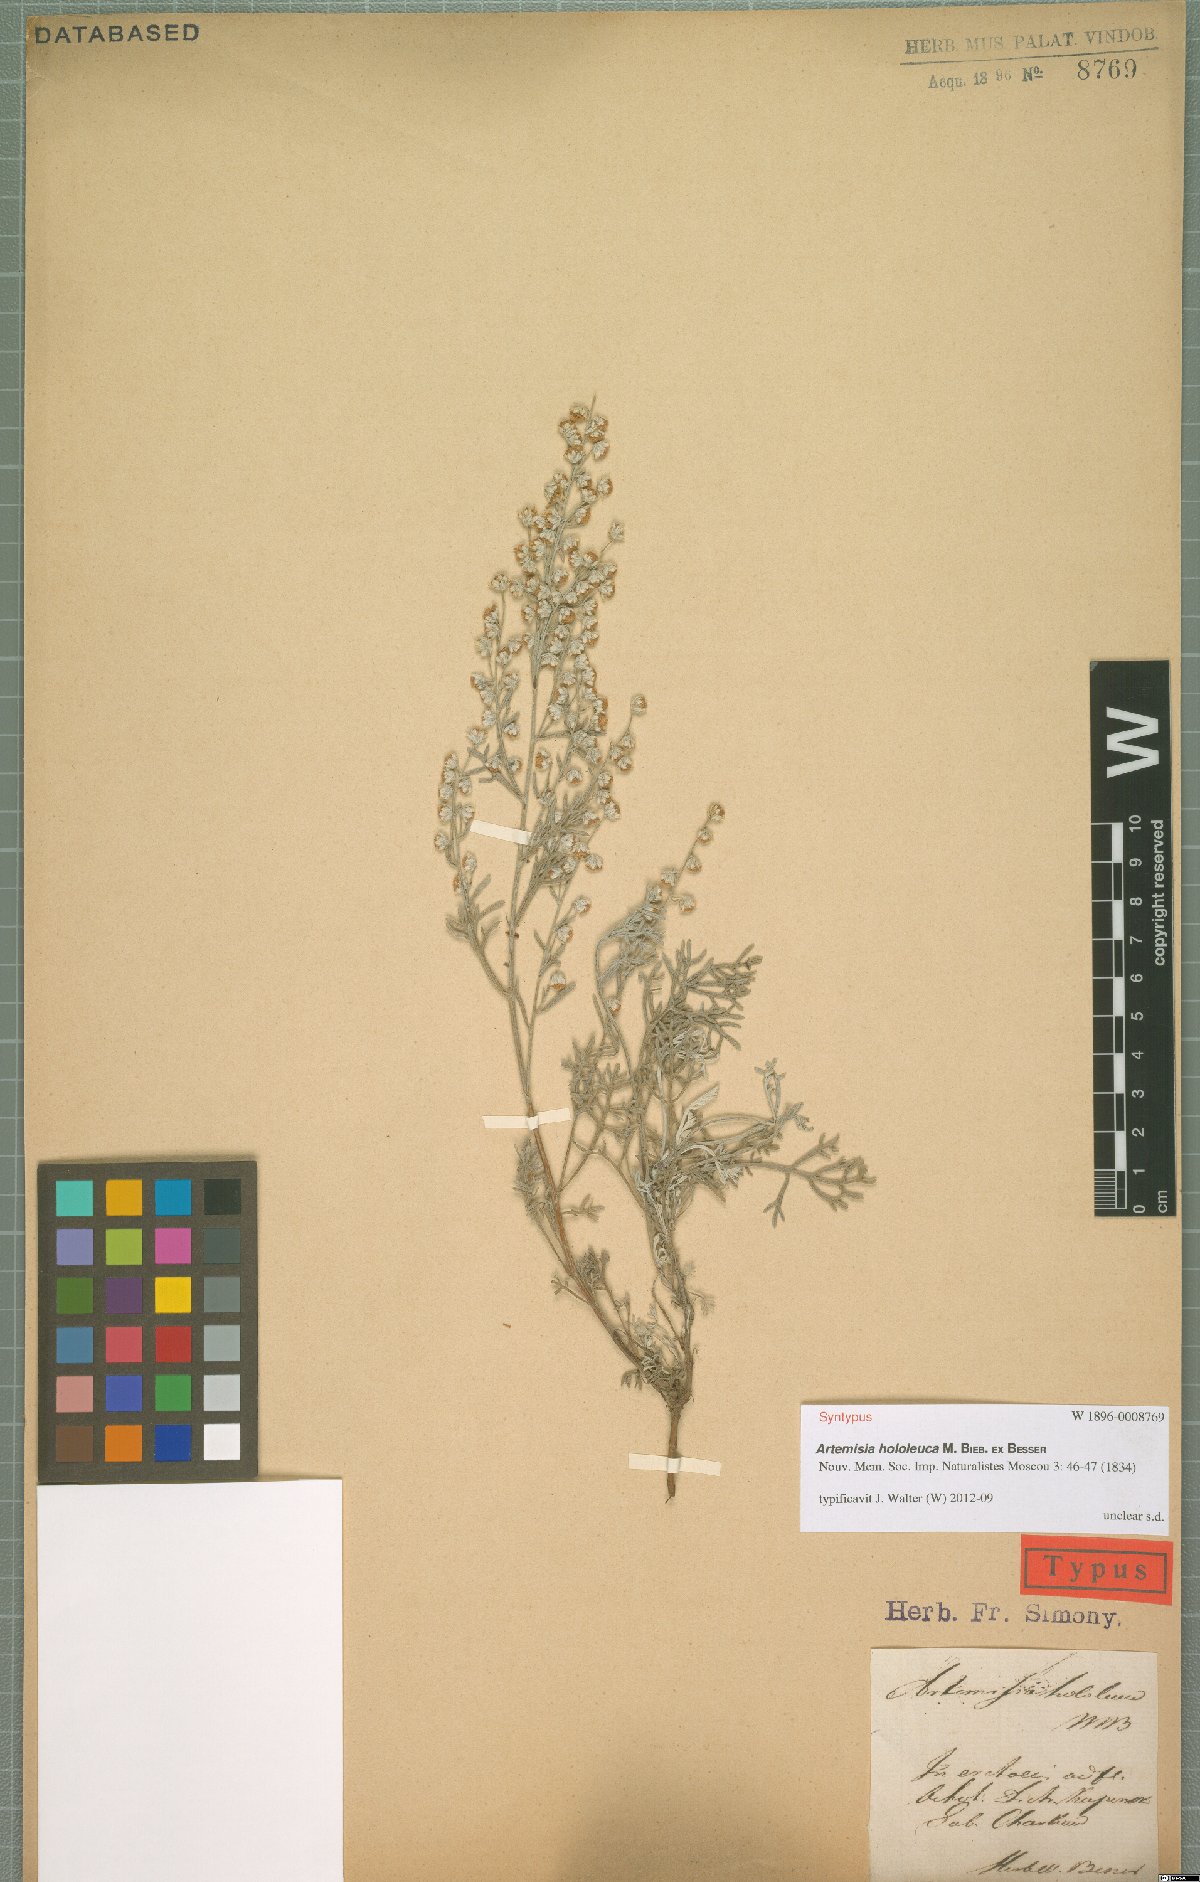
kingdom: Plantae
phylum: Tracheophyta
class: Magnoliopsida
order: Asterales
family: Asteraceae
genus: Artemisia
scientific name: Artemisia hololeuca
